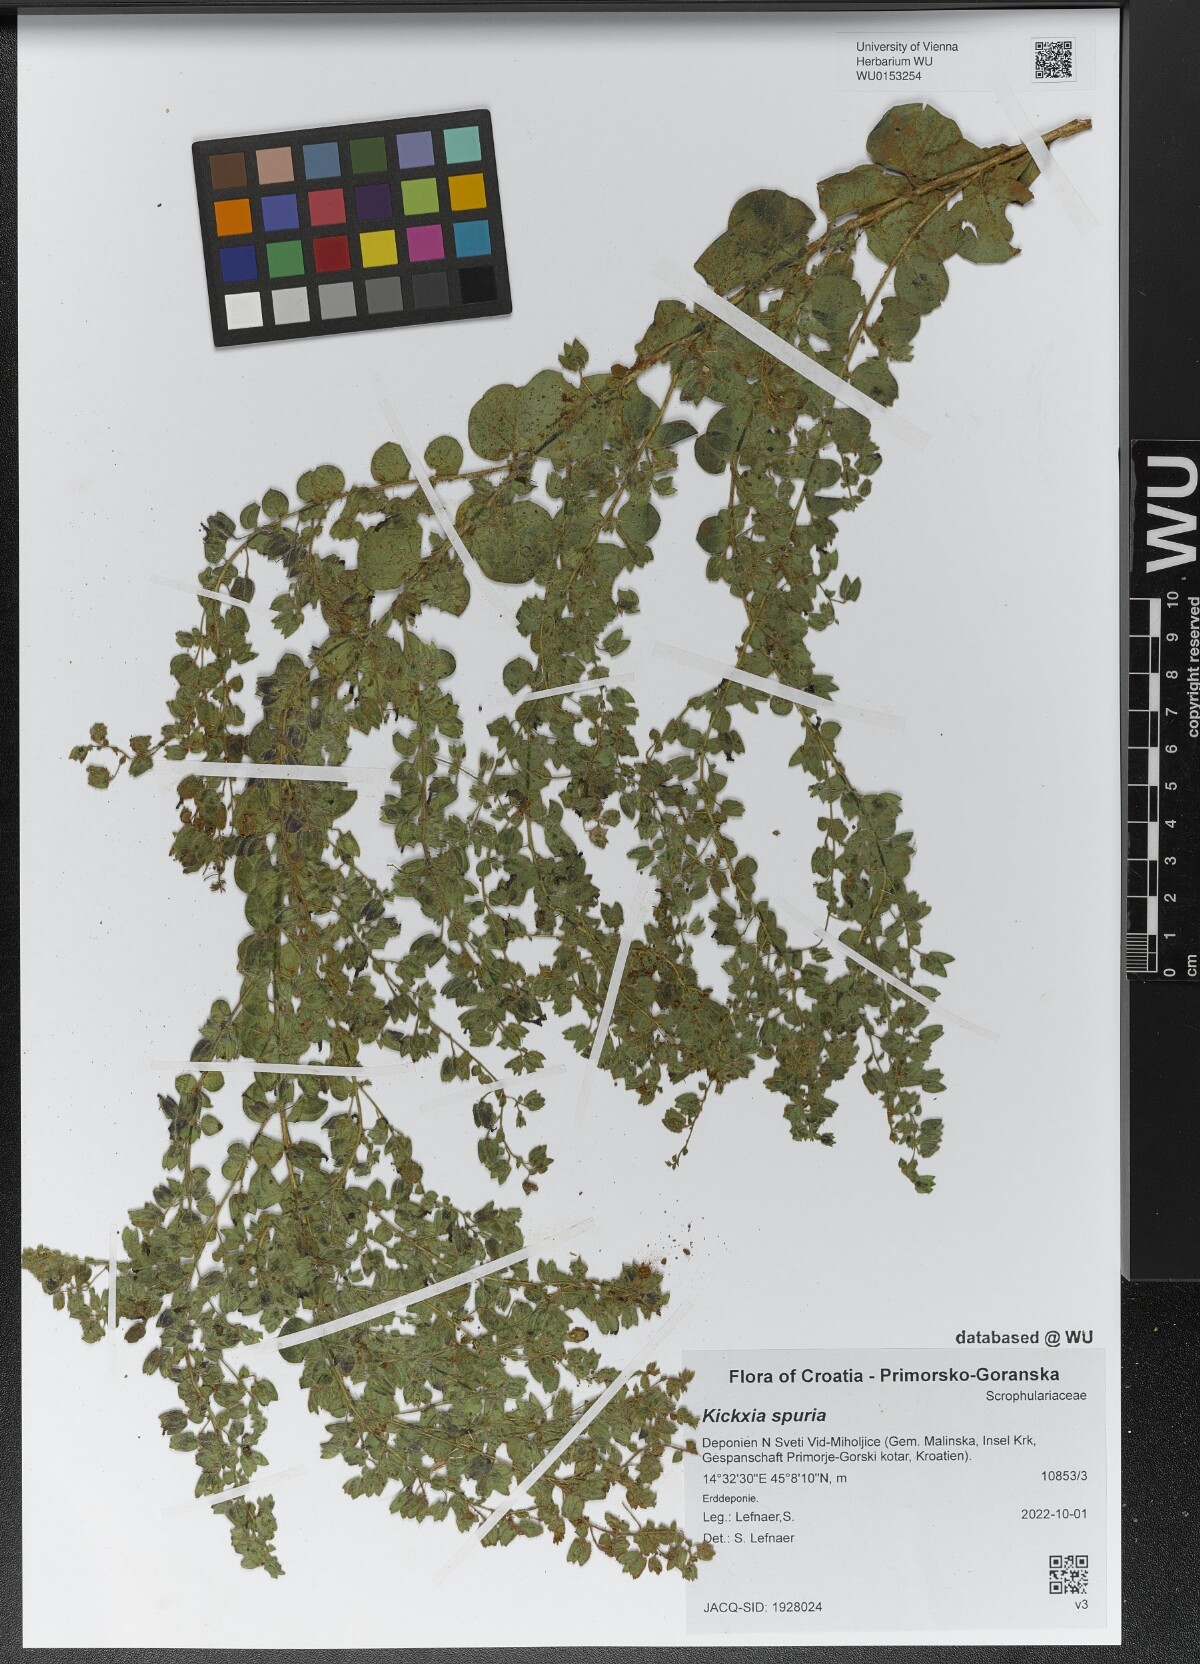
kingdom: Plantae
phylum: Tracheophyta
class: Magnoliopsida
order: Lamiales
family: Plantaginaceae
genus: Kickxia
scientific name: Kickxia spuria
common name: Round-leaved fluellen
